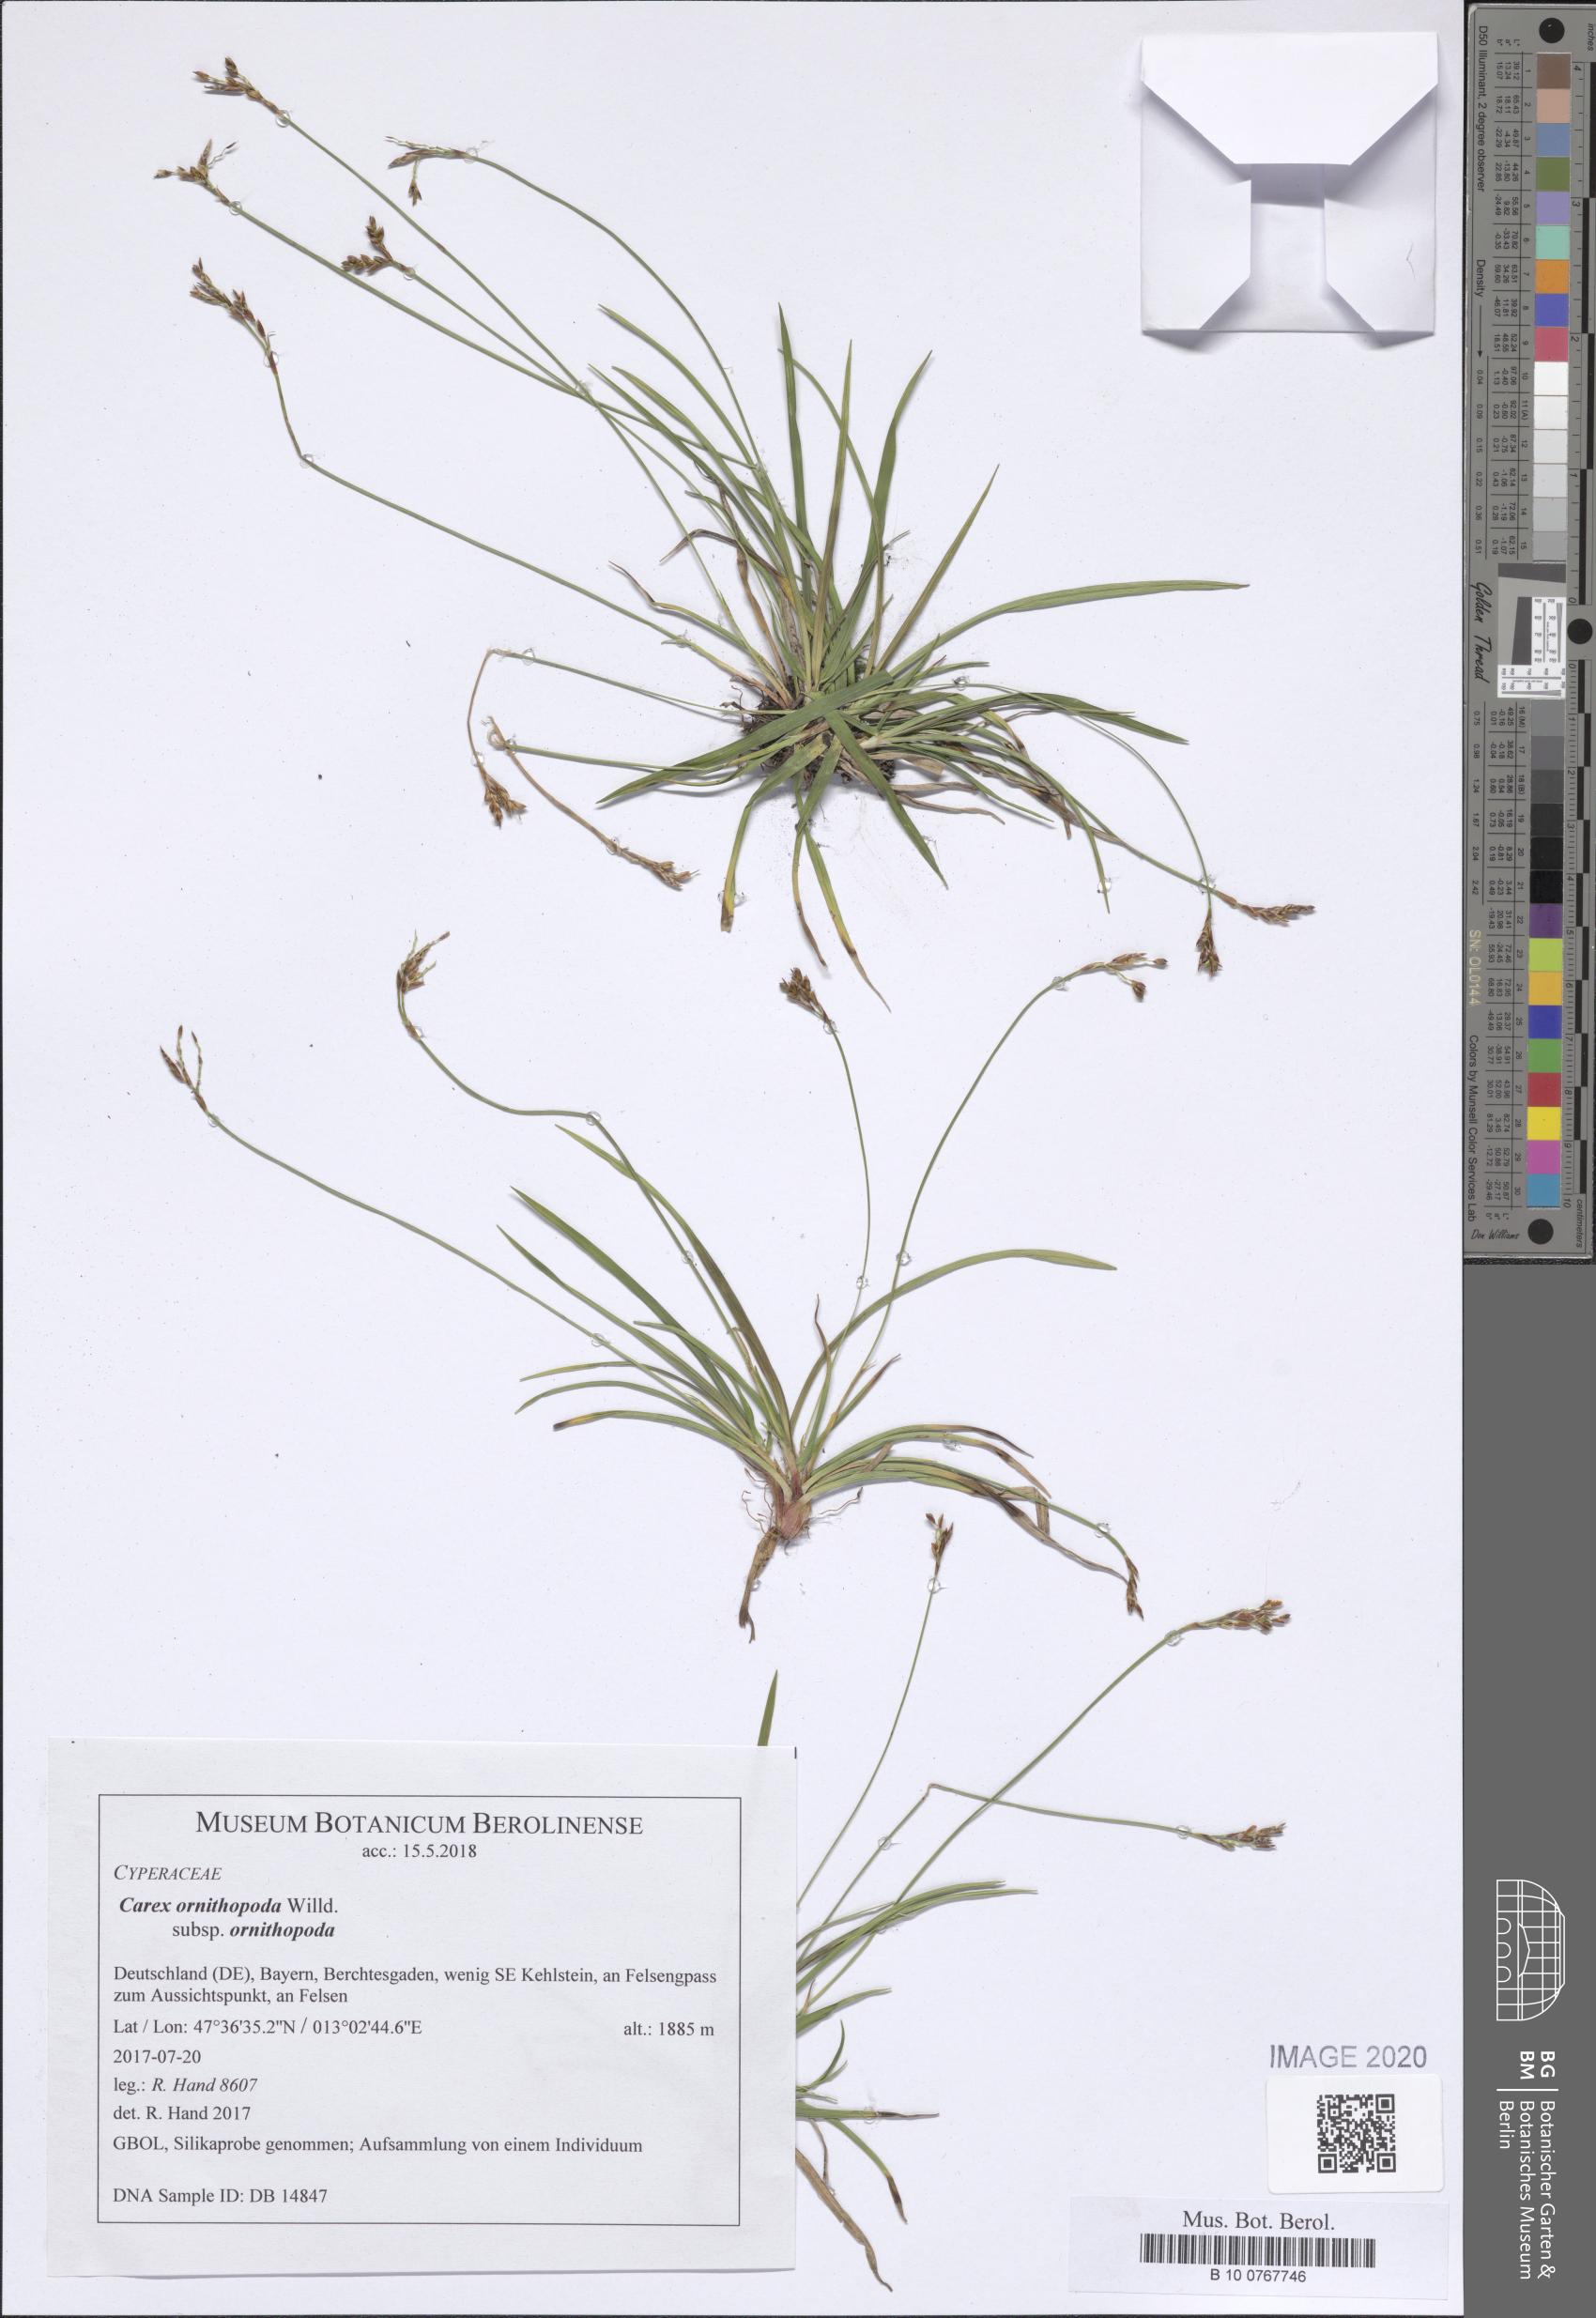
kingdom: Plantae
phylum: Tracheophyta
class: Liliopsida
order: Poales
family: Cyperaceae
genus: Carex
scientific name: Carex ornithopoda
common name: Bird's-foot sedge
